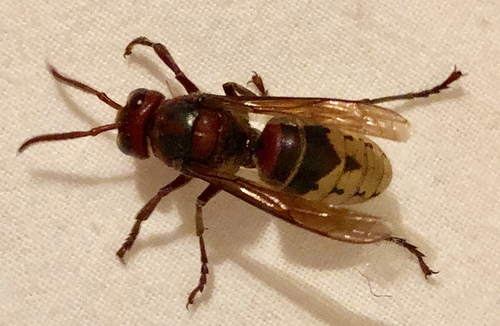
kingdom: Animalia
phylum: Arthropoda
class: Insecta
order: Hymenoptera
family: Vespidae
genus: Vespa
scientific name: Vespa crabro
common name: Hornet
